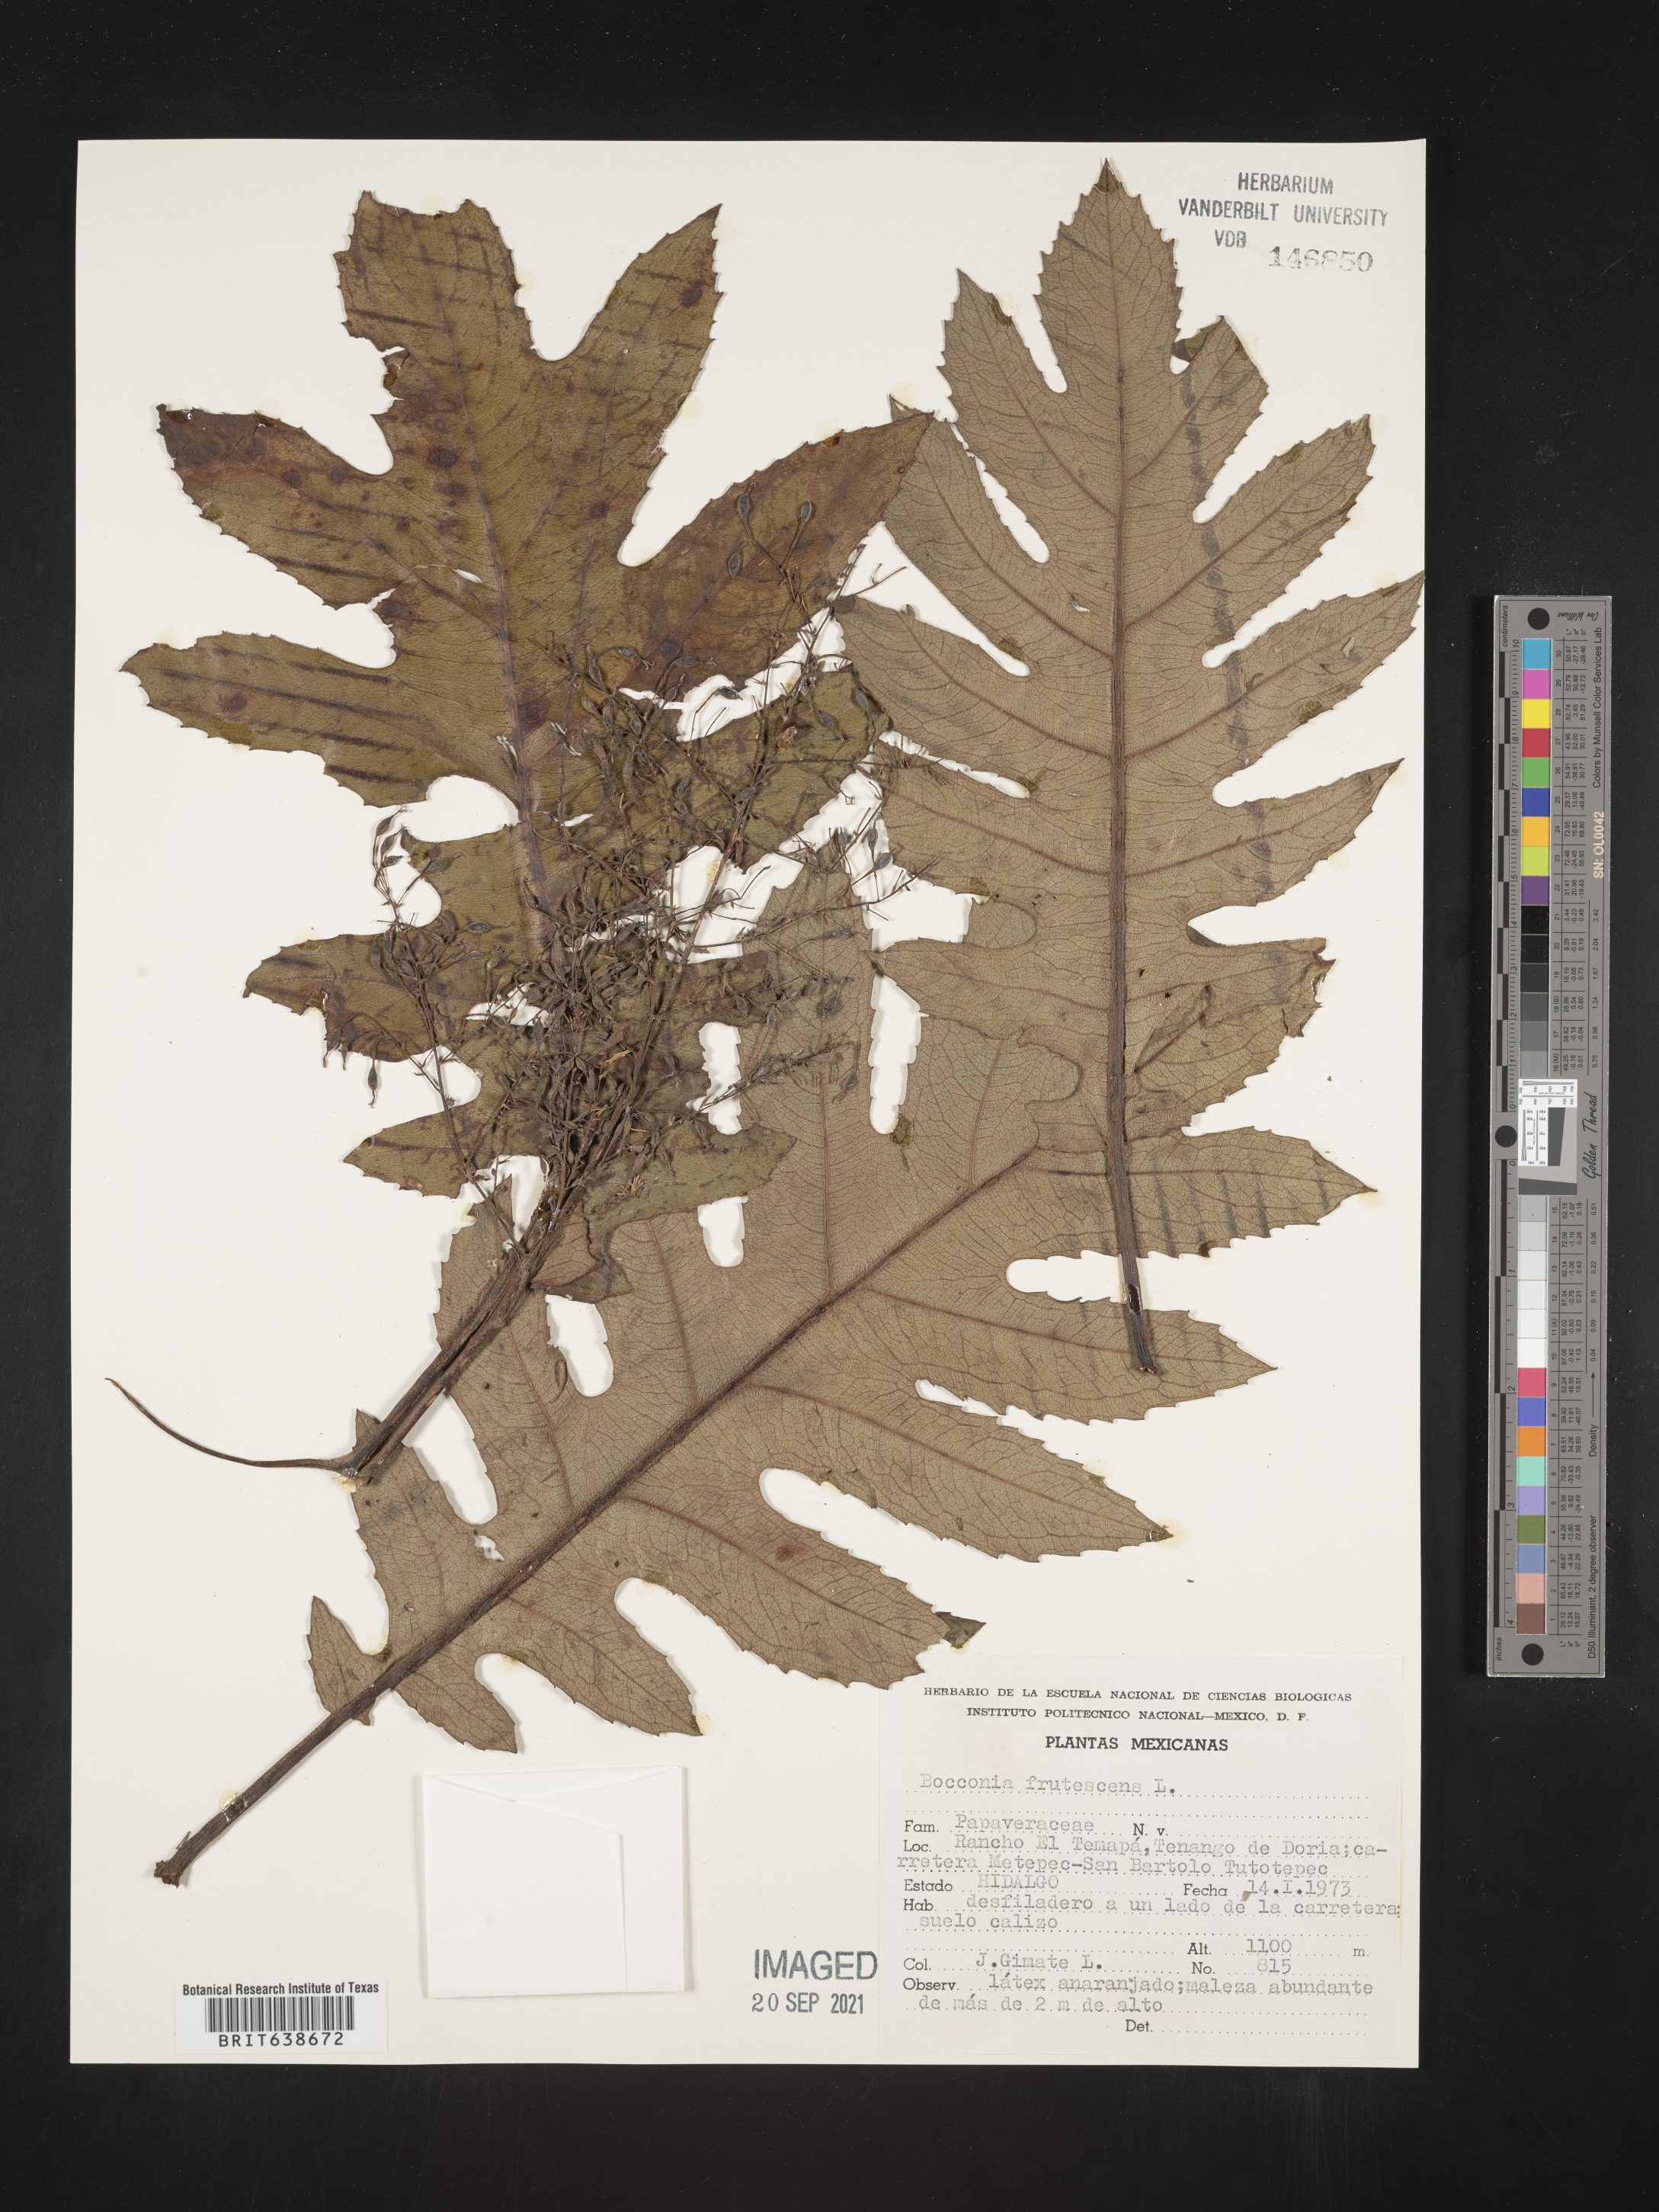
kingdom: Plantae
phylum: Tracheophyta
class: Magnoliopsida
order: Ranunculales
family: Papaveraceae
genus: Bocconia
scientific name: Bocconia
